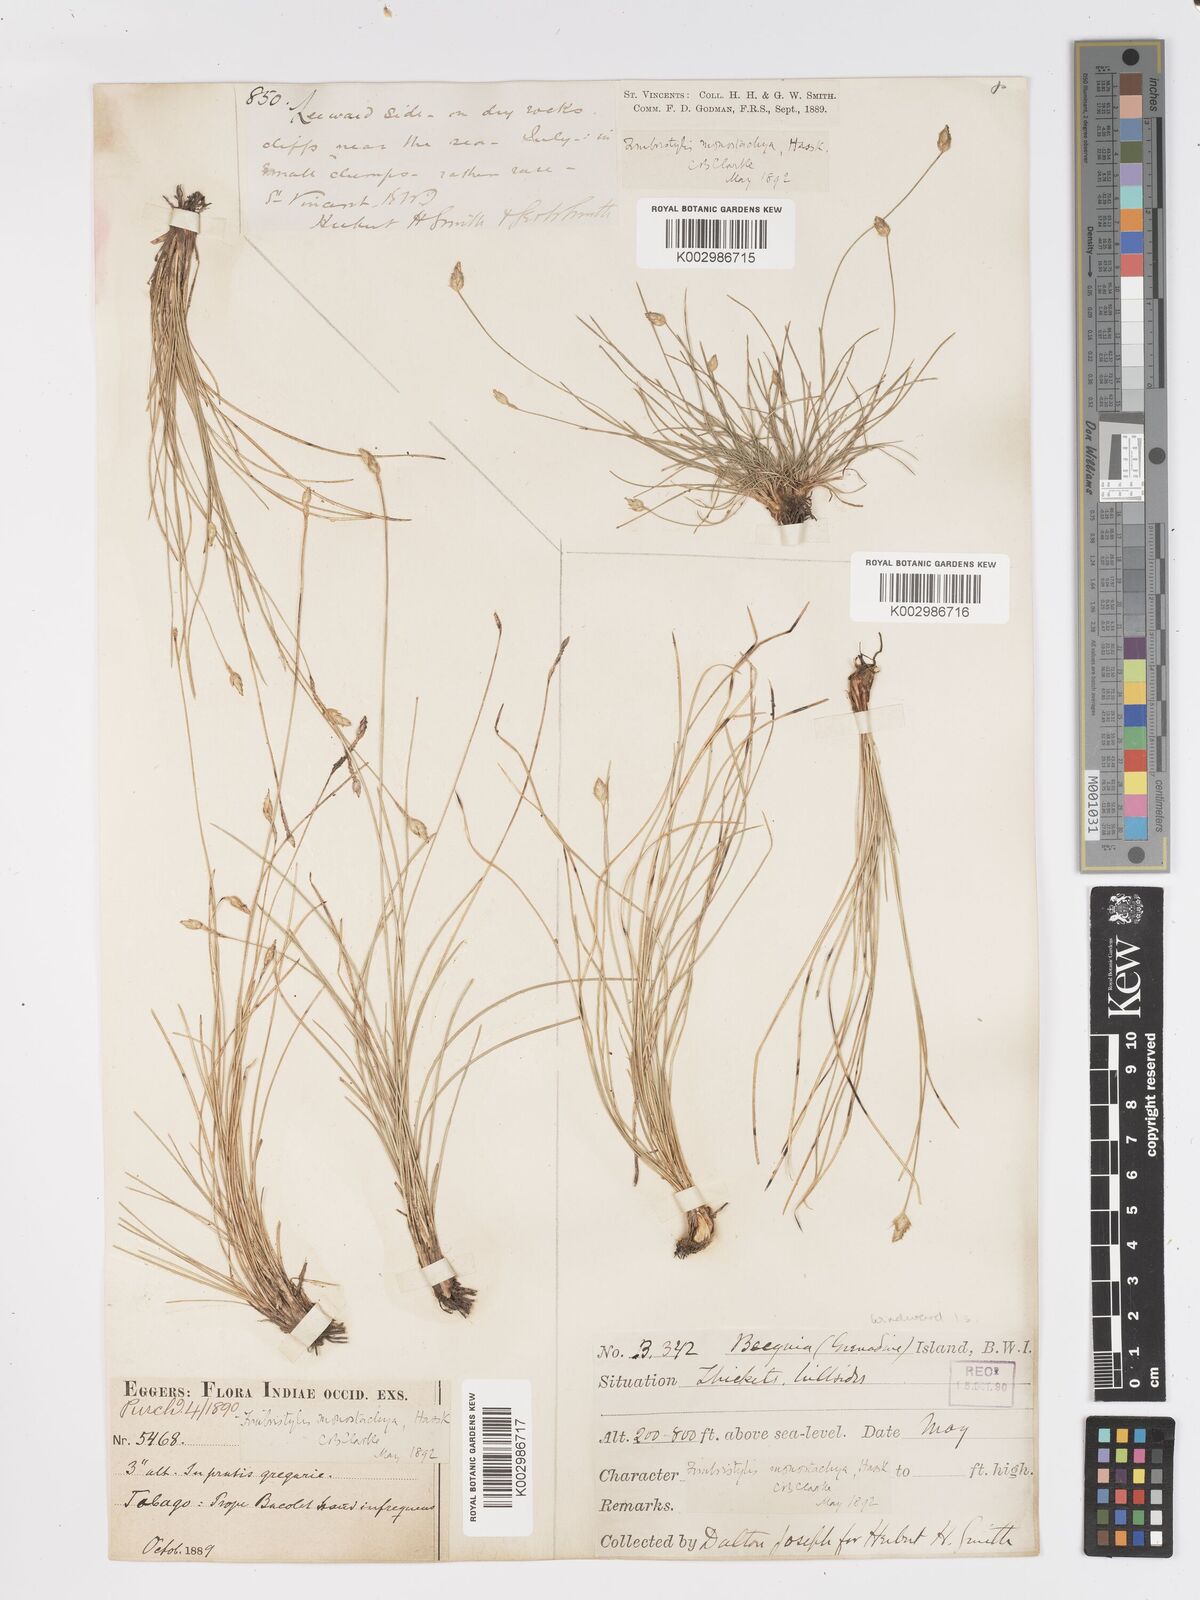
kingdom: Plantae
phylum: Tracheophyta
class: Liliopsida
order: Poales
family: Cyperaceae
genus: Fimbristylis
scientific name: Fimbristylis
